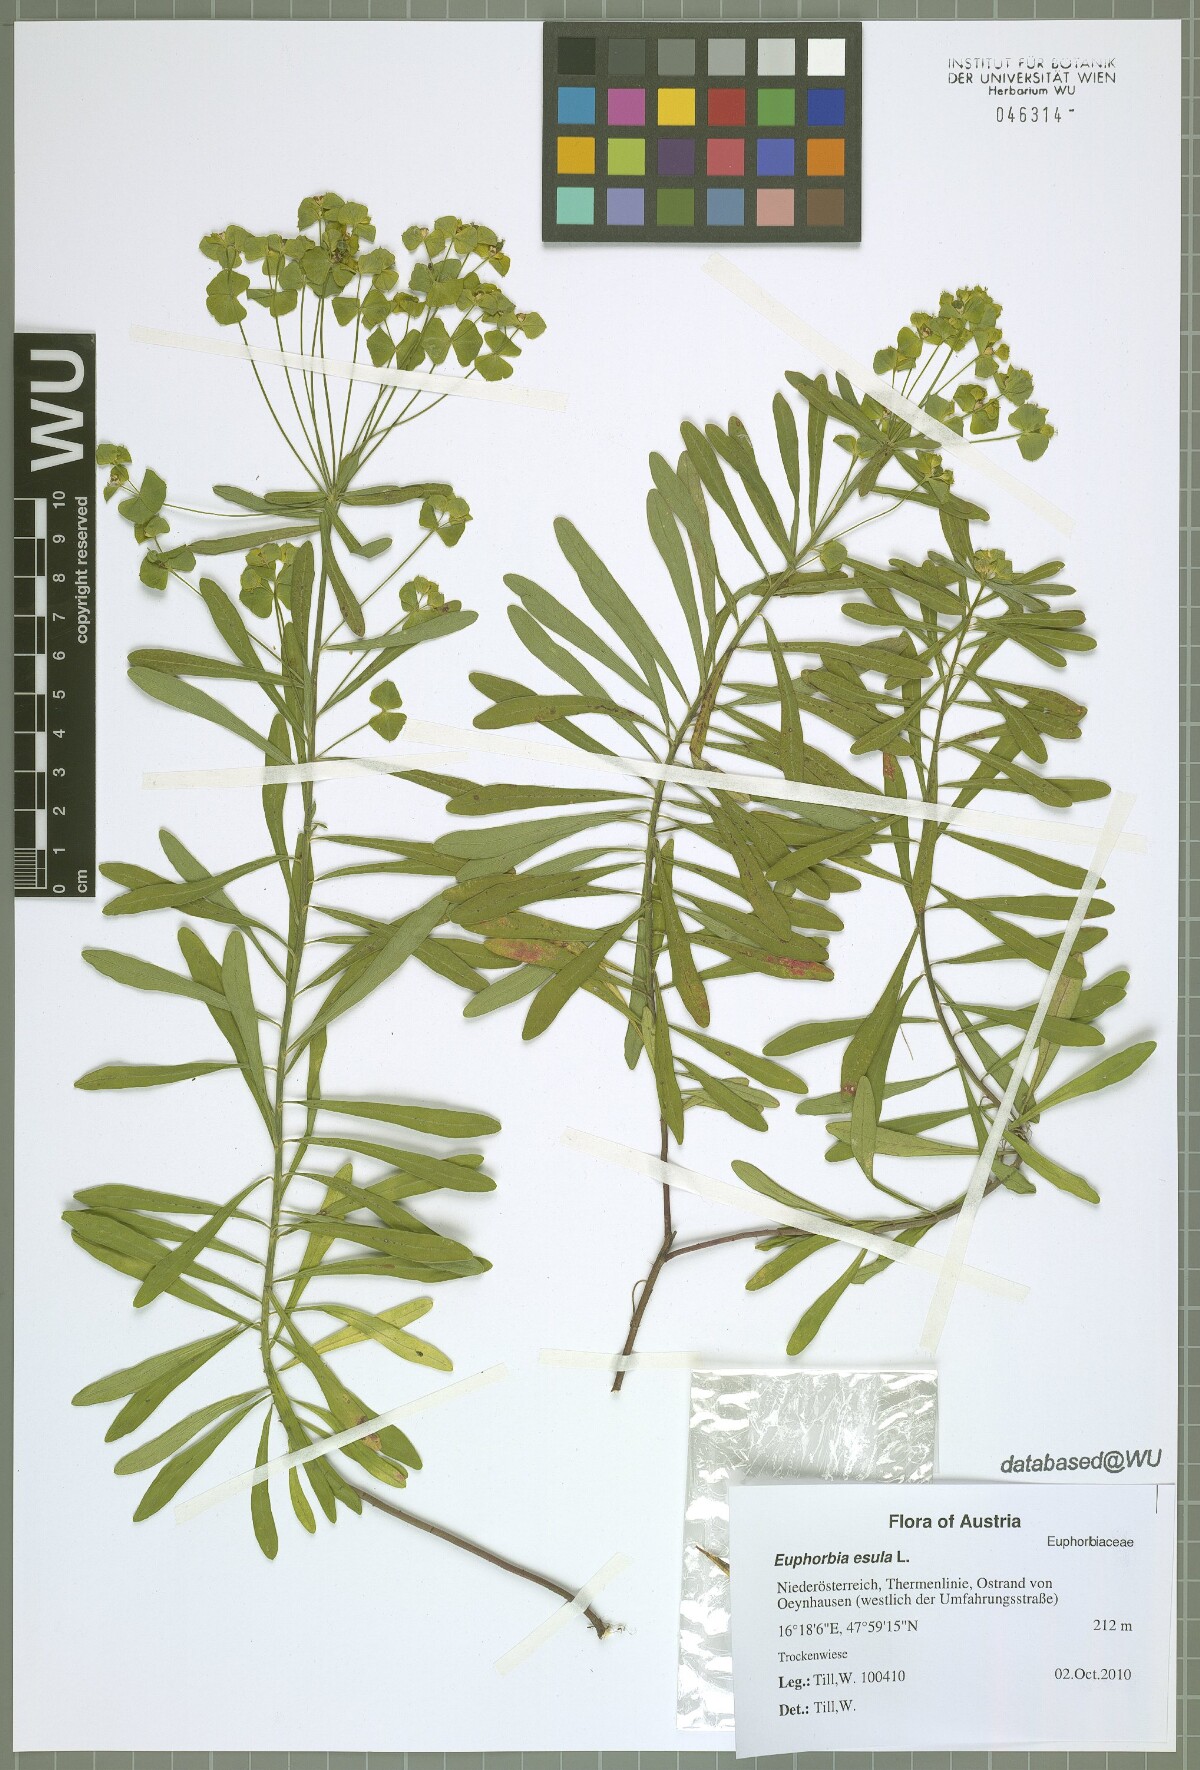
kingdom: Plantae
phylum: Tracheophyta
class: Magnoliopsida
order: Malpighiales
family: Euphorbiaceae
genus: Euphorbia
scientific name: Euphorbia esula
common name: Leafy spurge
